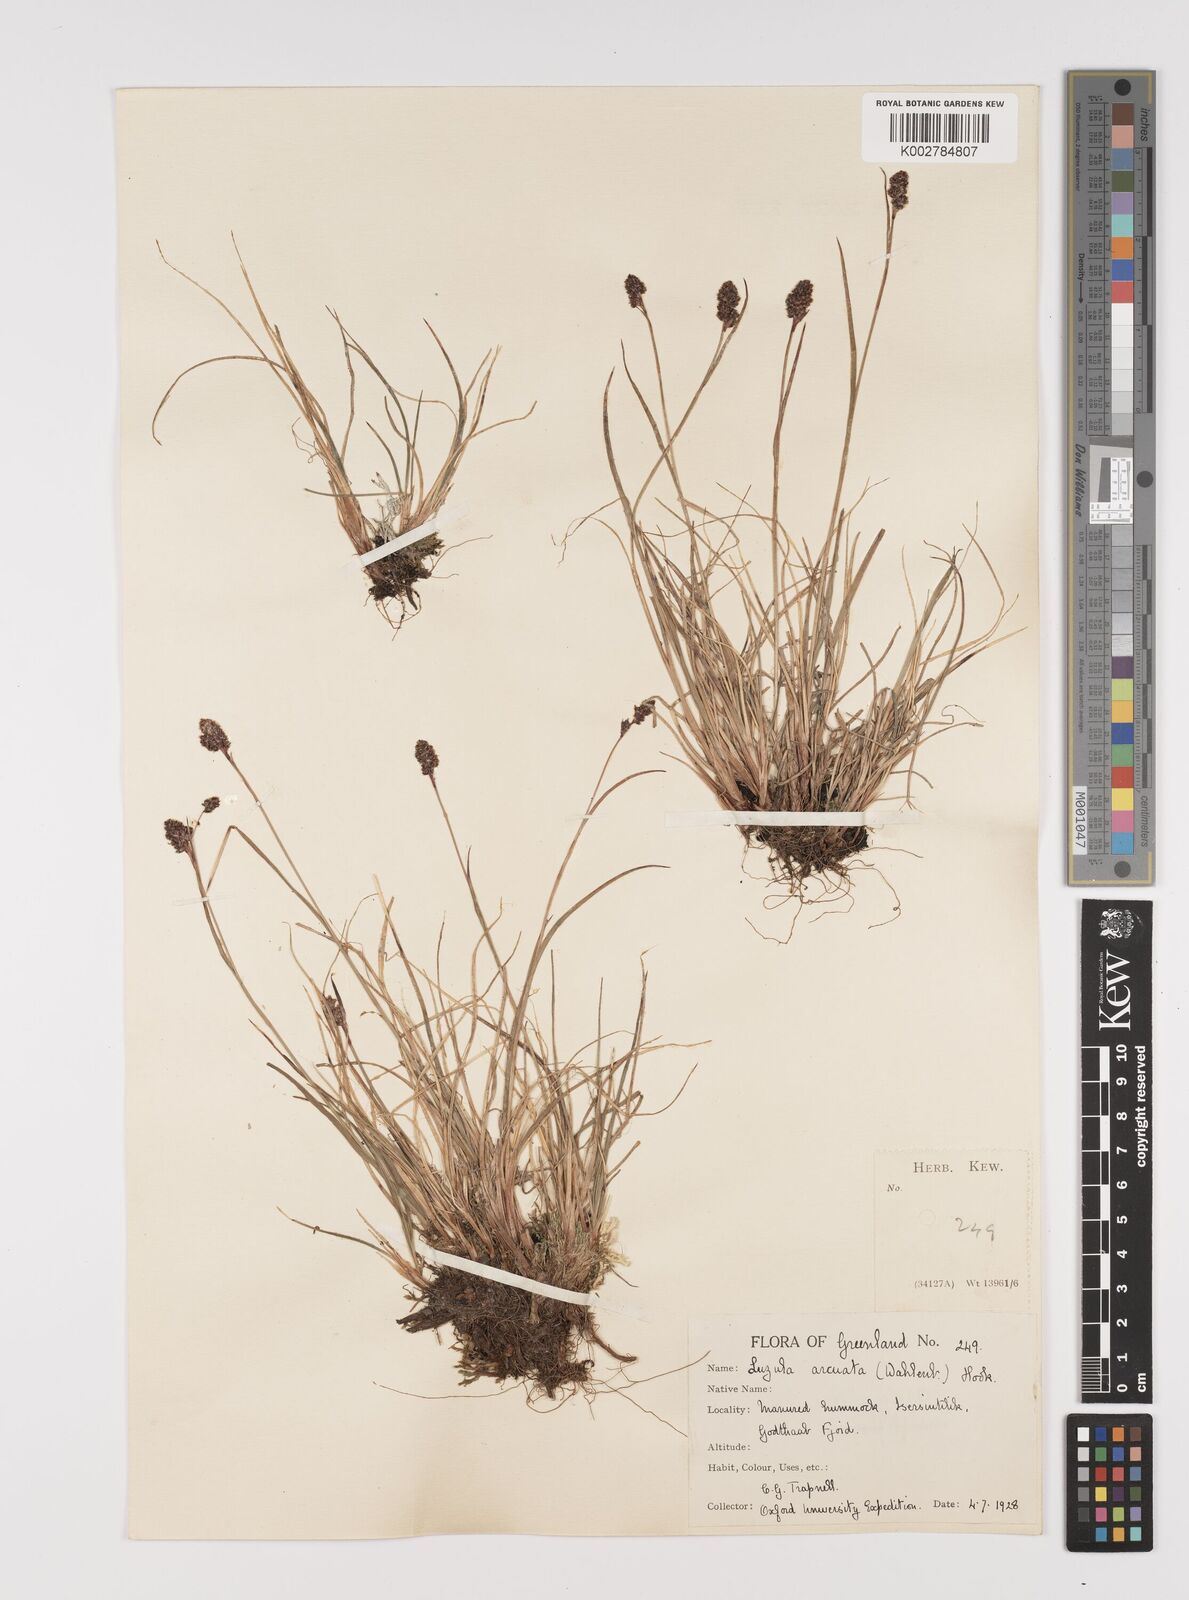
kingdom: Plantae
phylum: Tracheophyta
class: Liliopsida
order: Poales
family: Juncaceae
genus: Luzula
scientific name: Luzula confusa
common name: Northern wood rush
